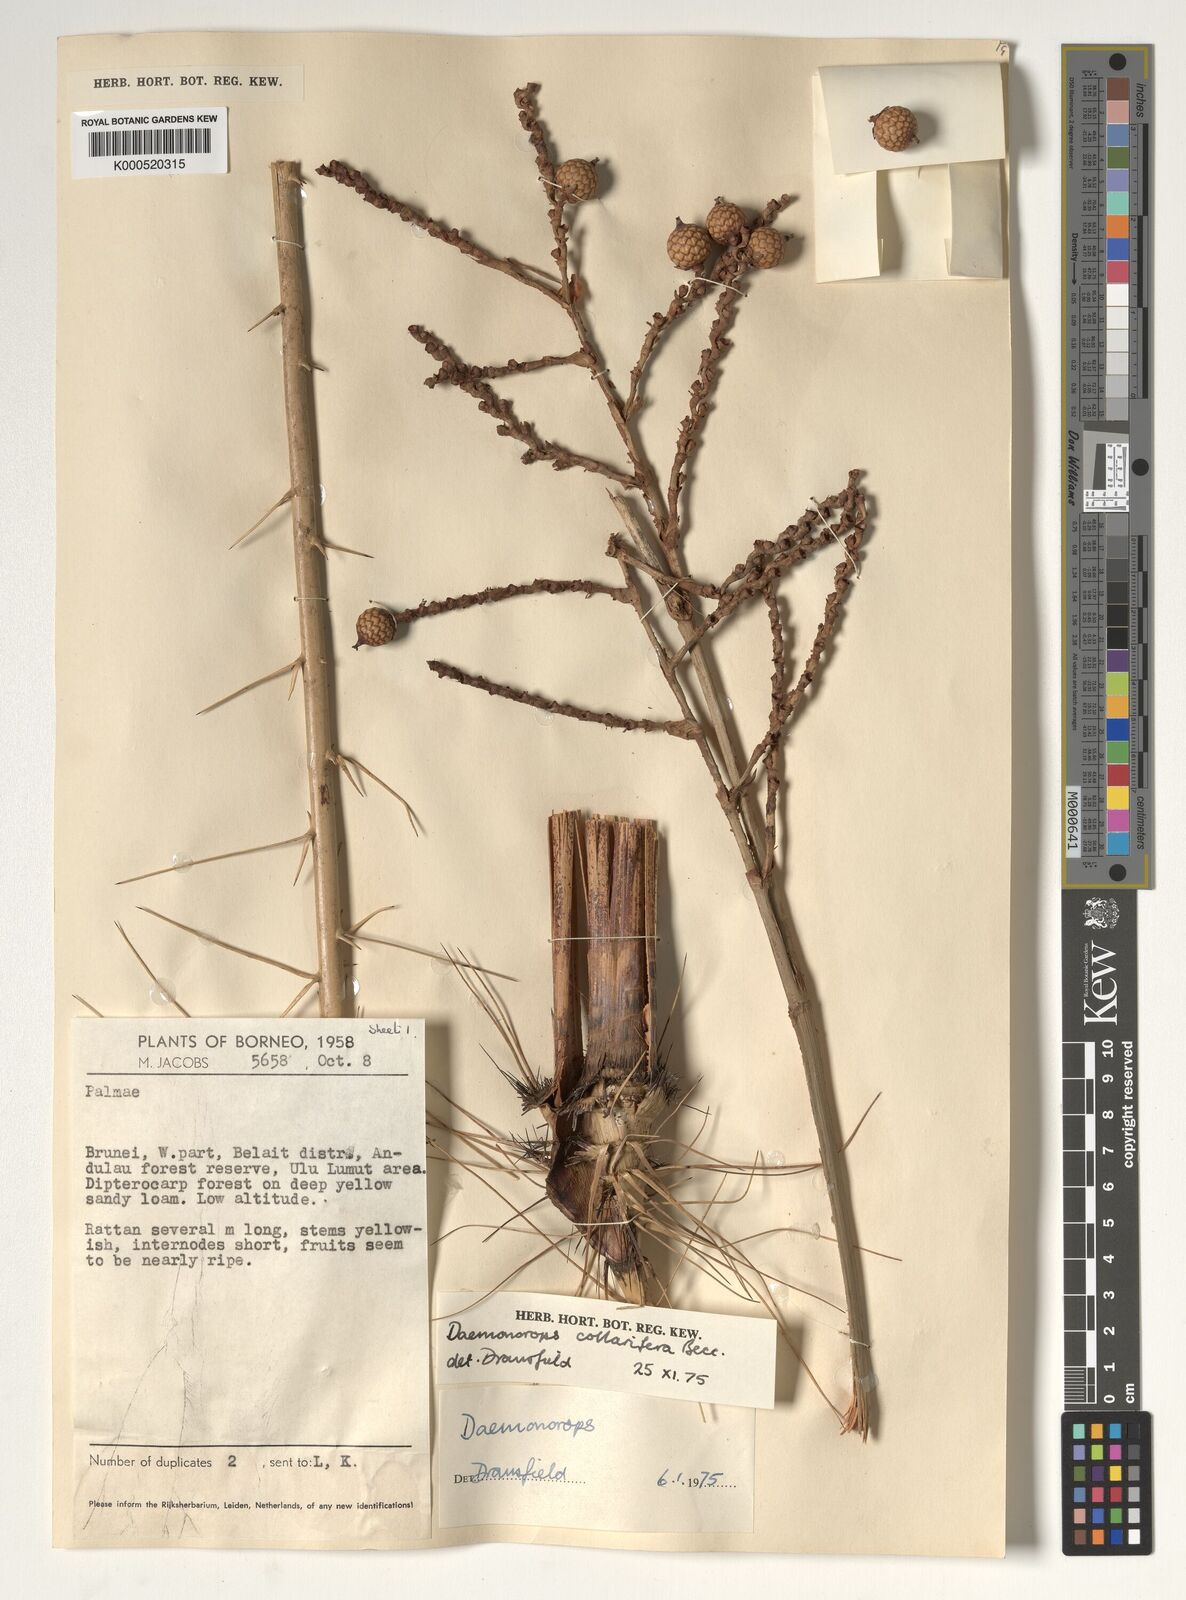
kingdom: Plantae
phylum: Tracheophyta
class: Liliopsida
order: Arecales
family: Arecaceae
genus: Calamus
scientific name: Calamus geniculatus
